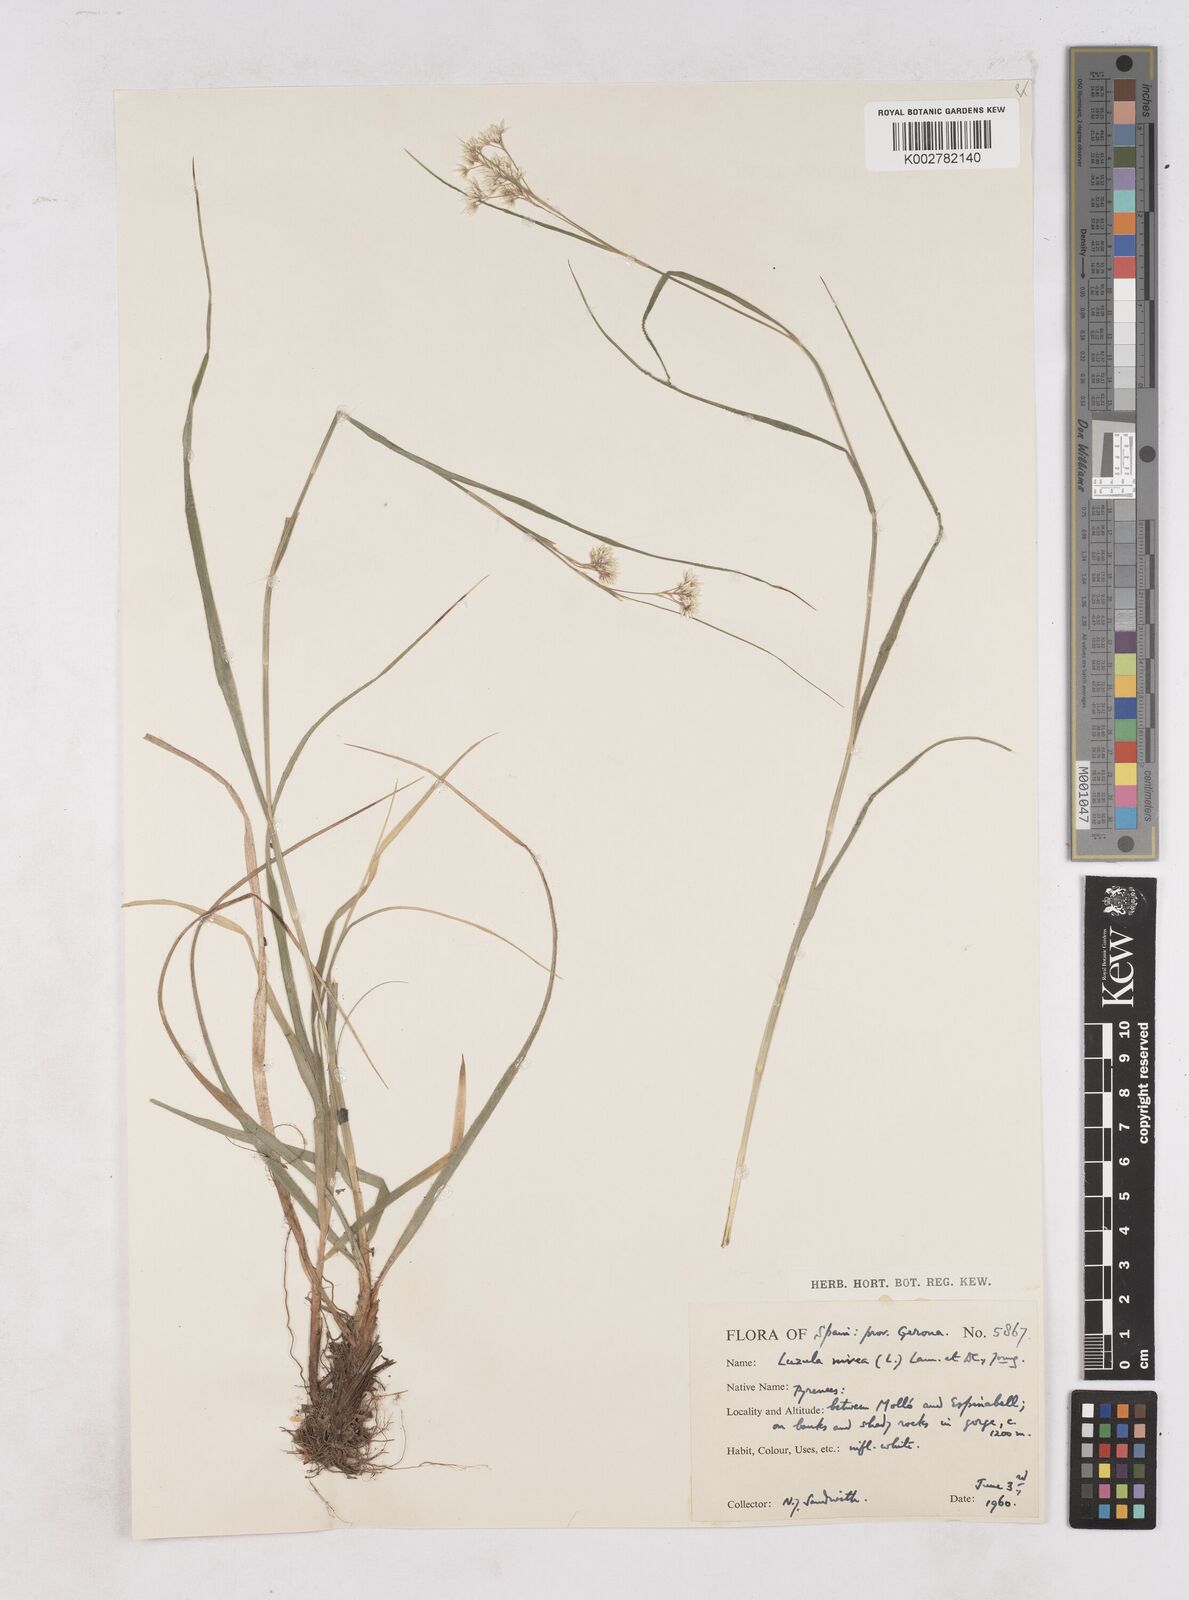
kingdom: Plantae
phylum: Tracheophyta
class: Liliopsida
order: Poales
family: Juncaceae
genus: Luzula
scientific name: Luzula nivea
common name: Snow-white wood-rush
